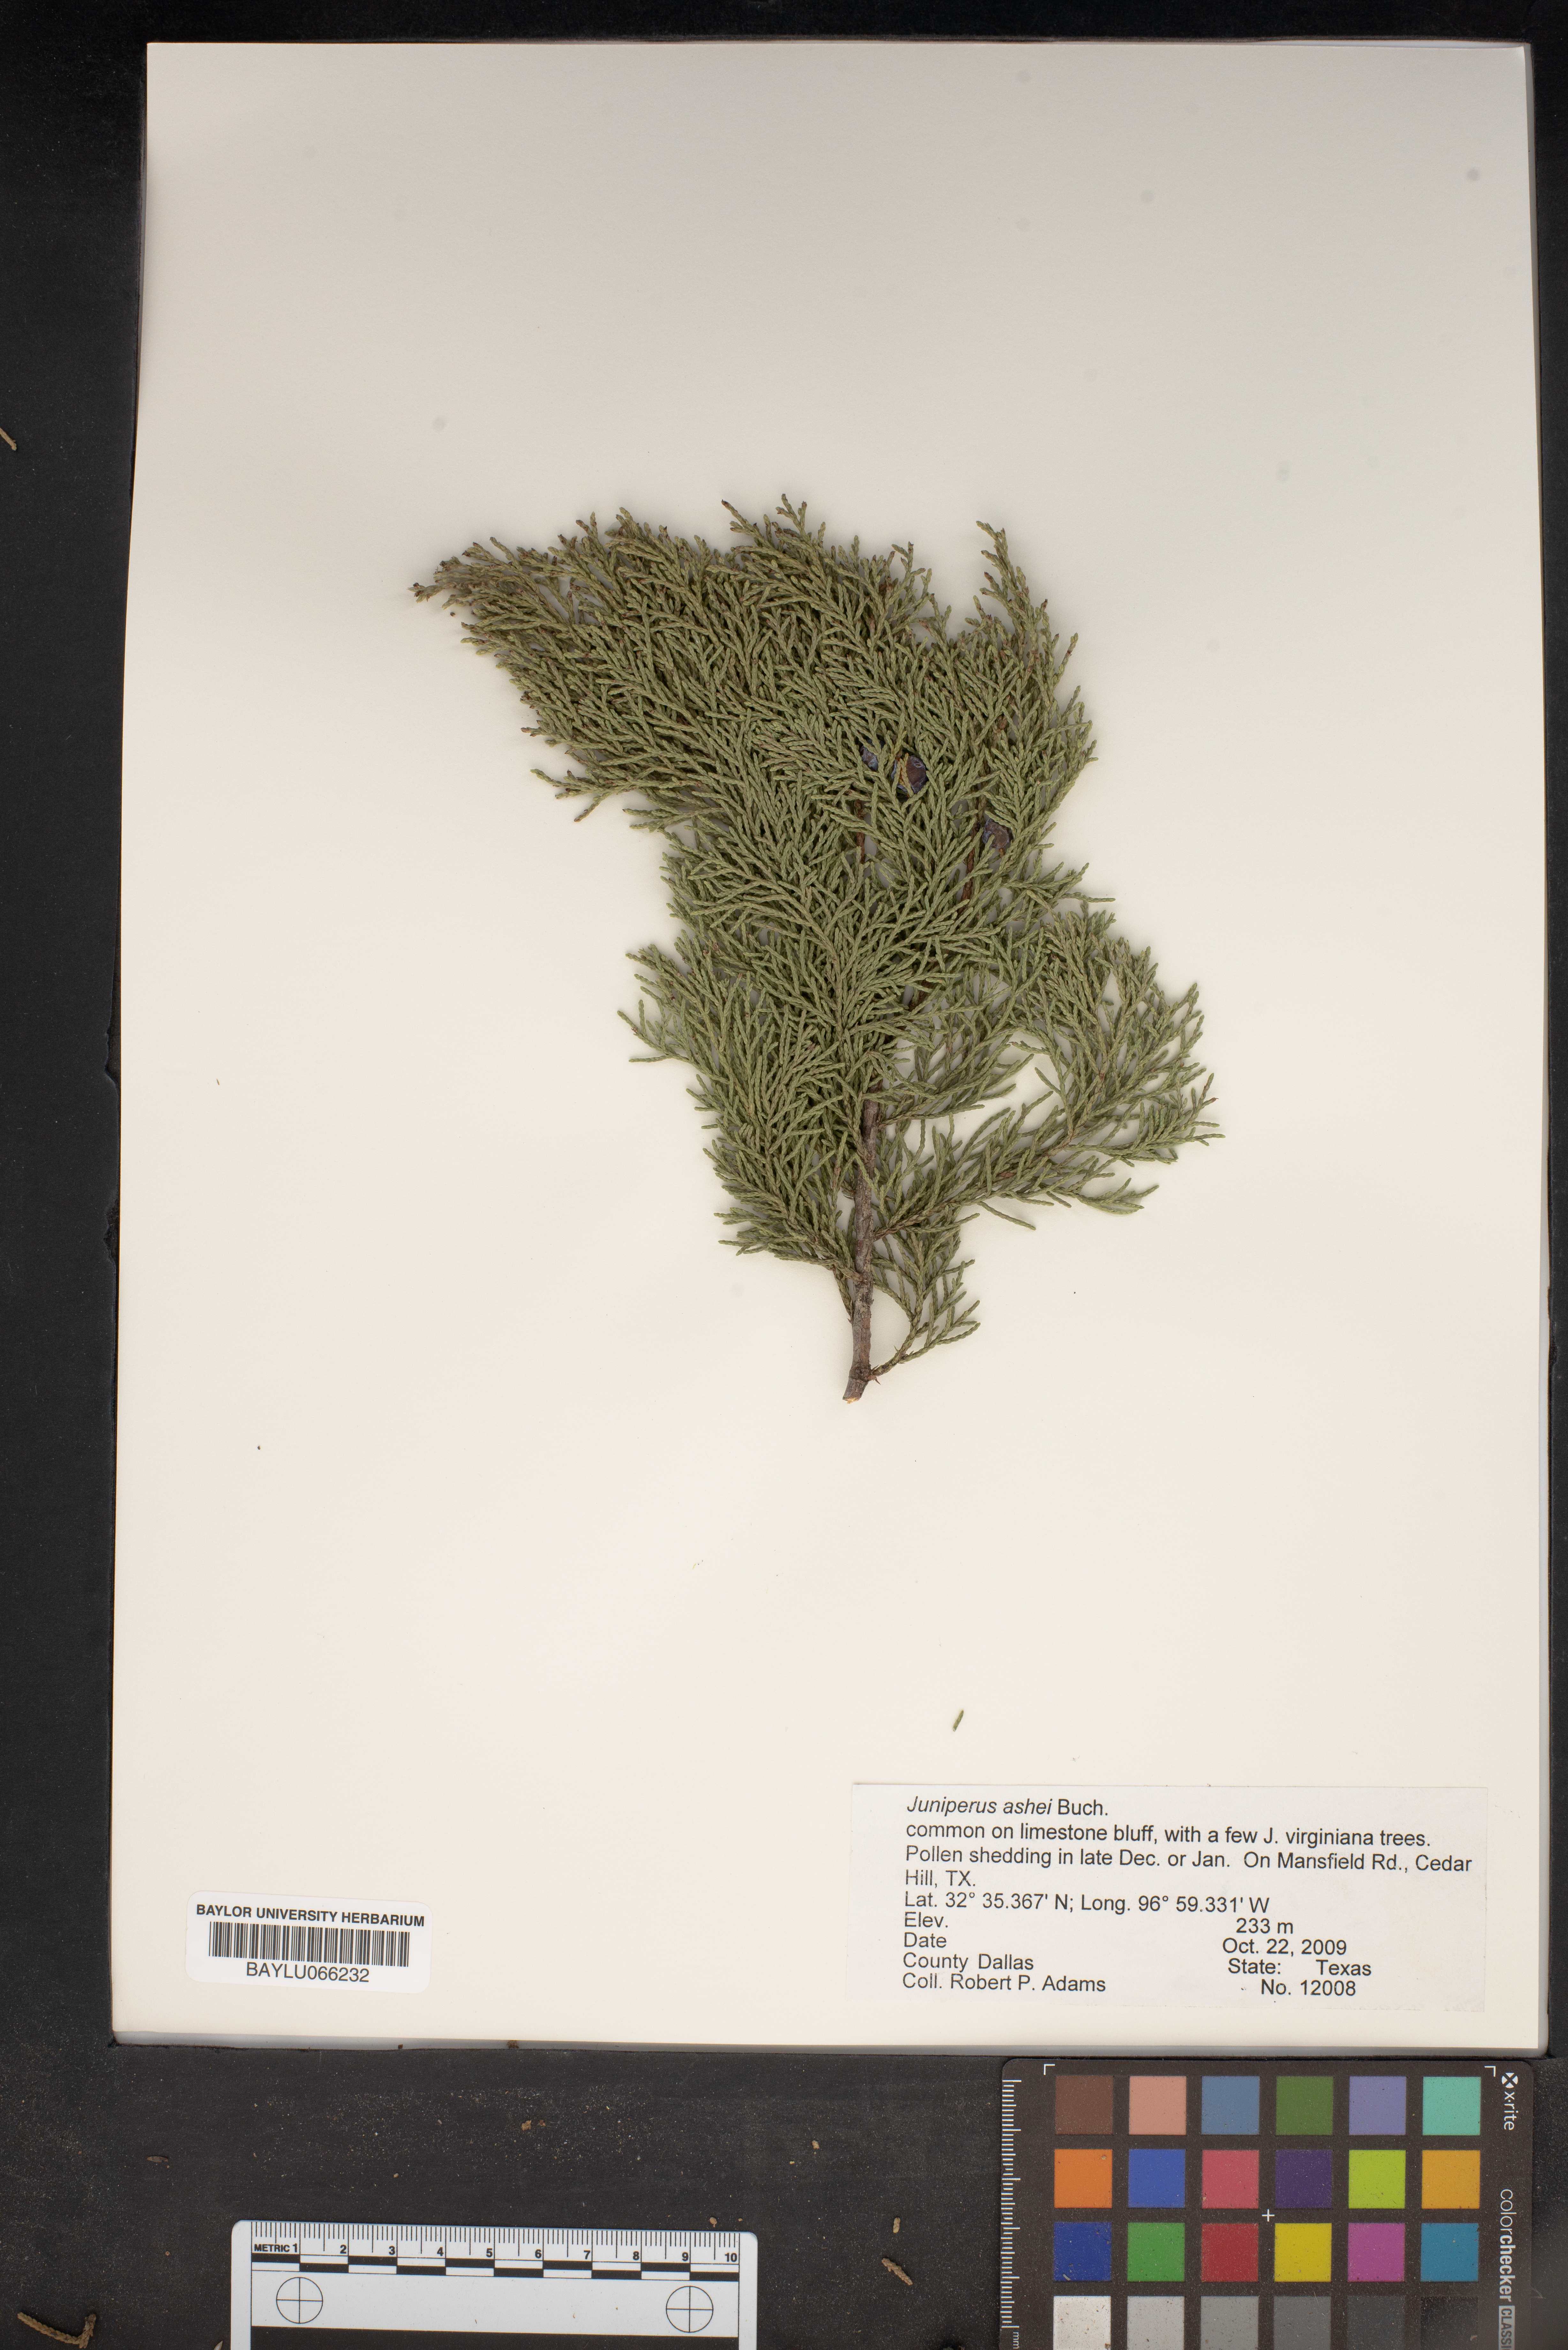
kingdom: Plantae
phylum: Tracheophyta
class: Pinopsida
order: Pinales
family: Cupressaceae
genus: Juniperus
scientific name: Juniperus ashei
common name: Mexican juniper
